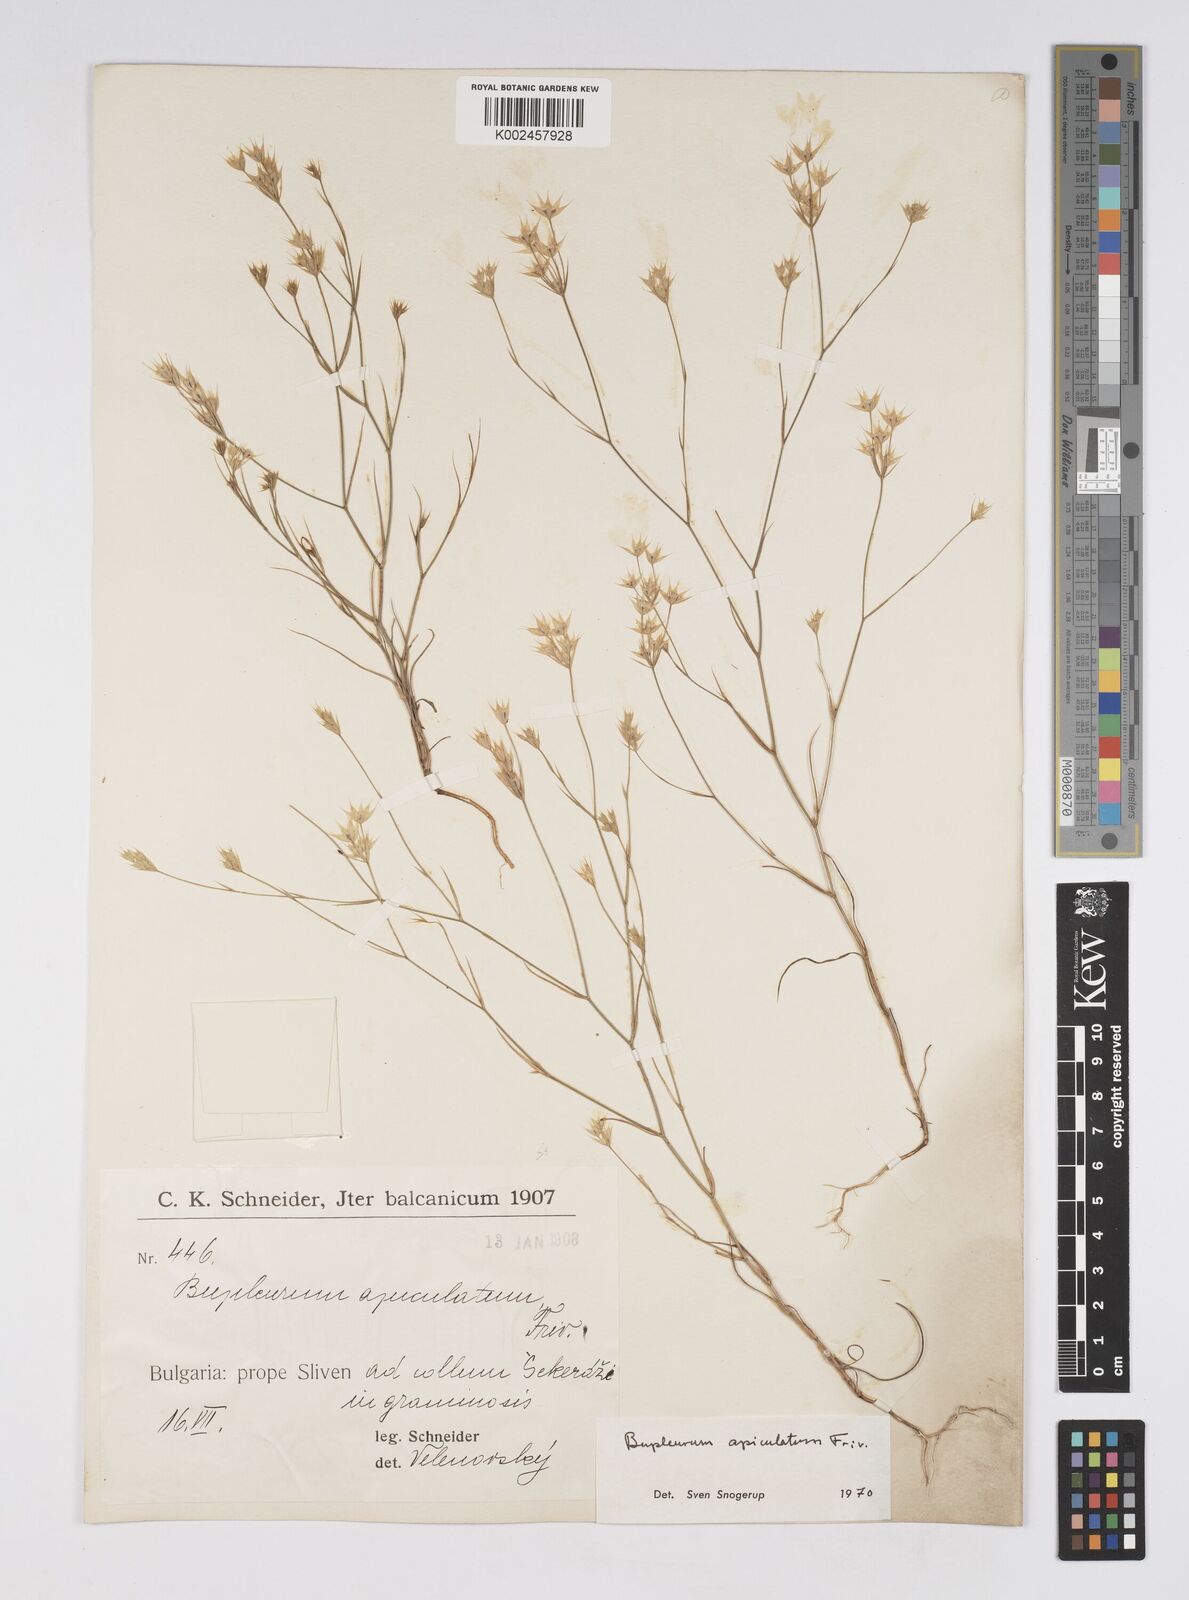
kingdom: Plantae
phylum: Tracheophyta
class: Magnoliopsida
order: Apiales
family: Apiaceae
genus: Bupleurum
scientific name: Bupleurum apiculatum
